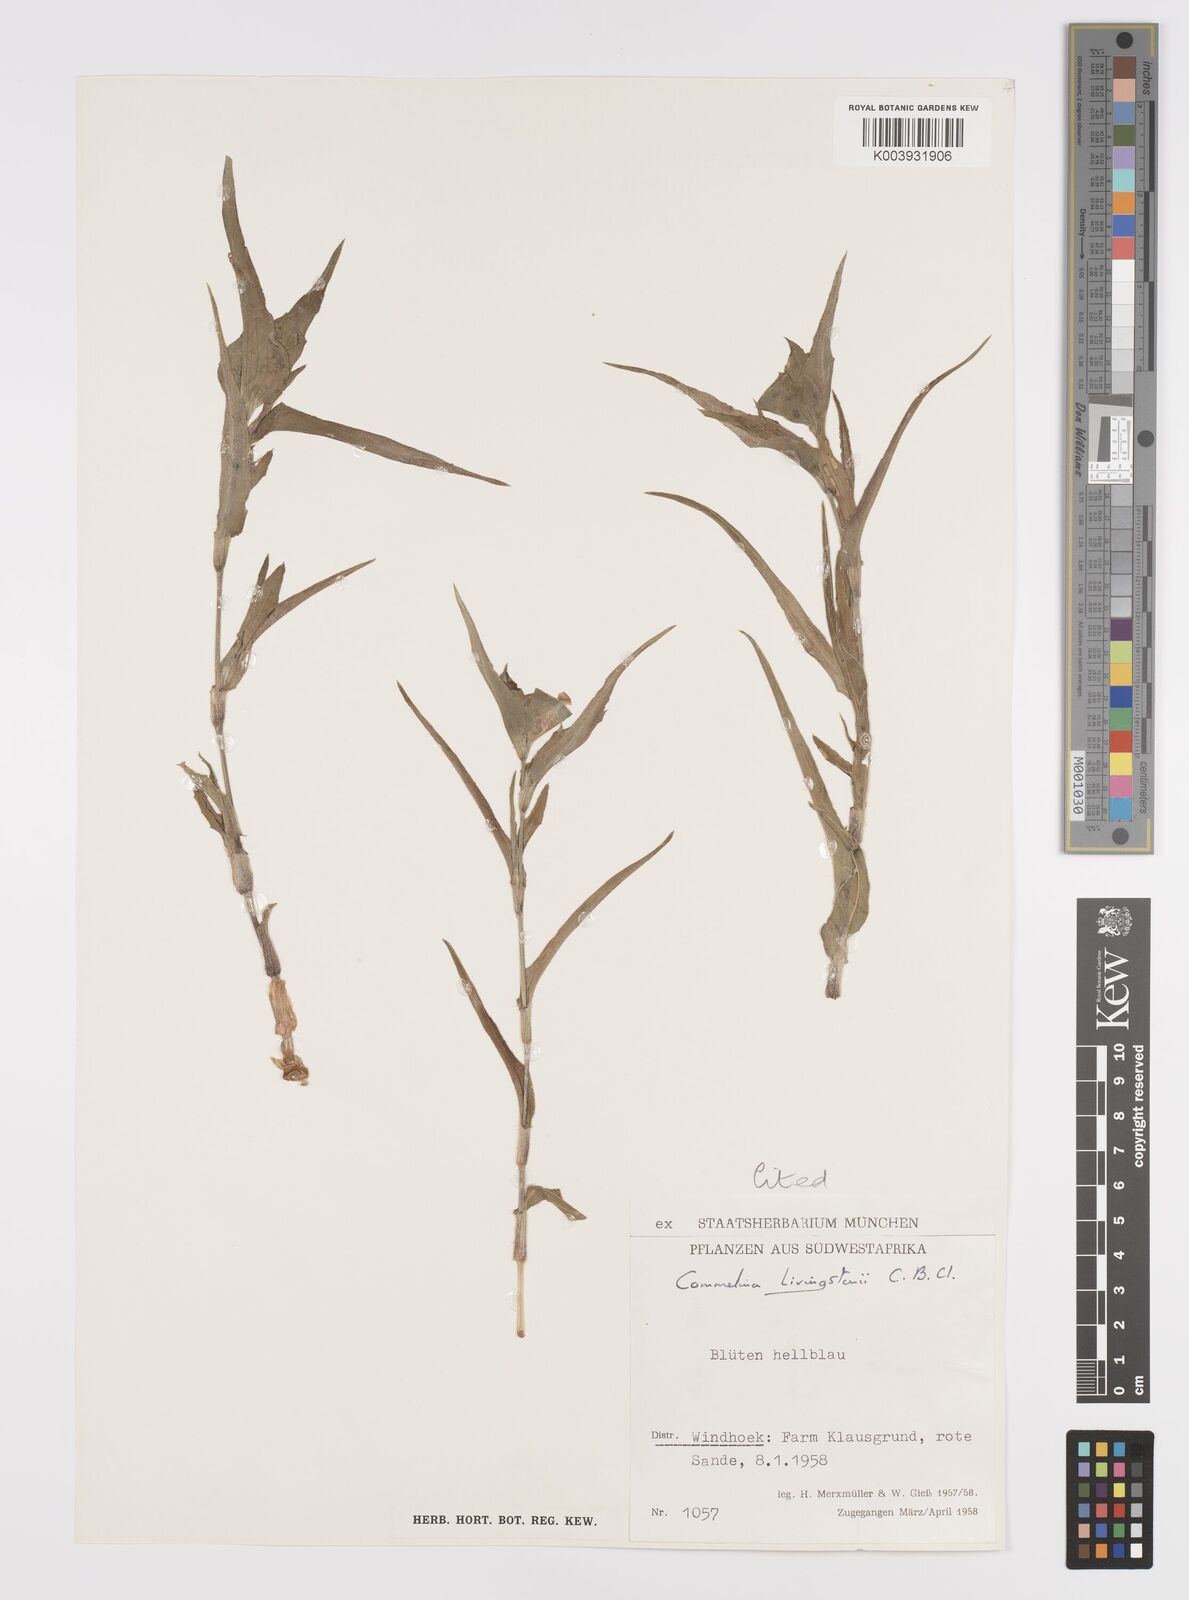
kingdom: Plantae
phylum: Tracheophyta
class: Liliopsida
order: Commelinales
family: Commelinaceae
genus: Commelina
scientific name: Commelina erecta
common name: Blousel blommetjie
